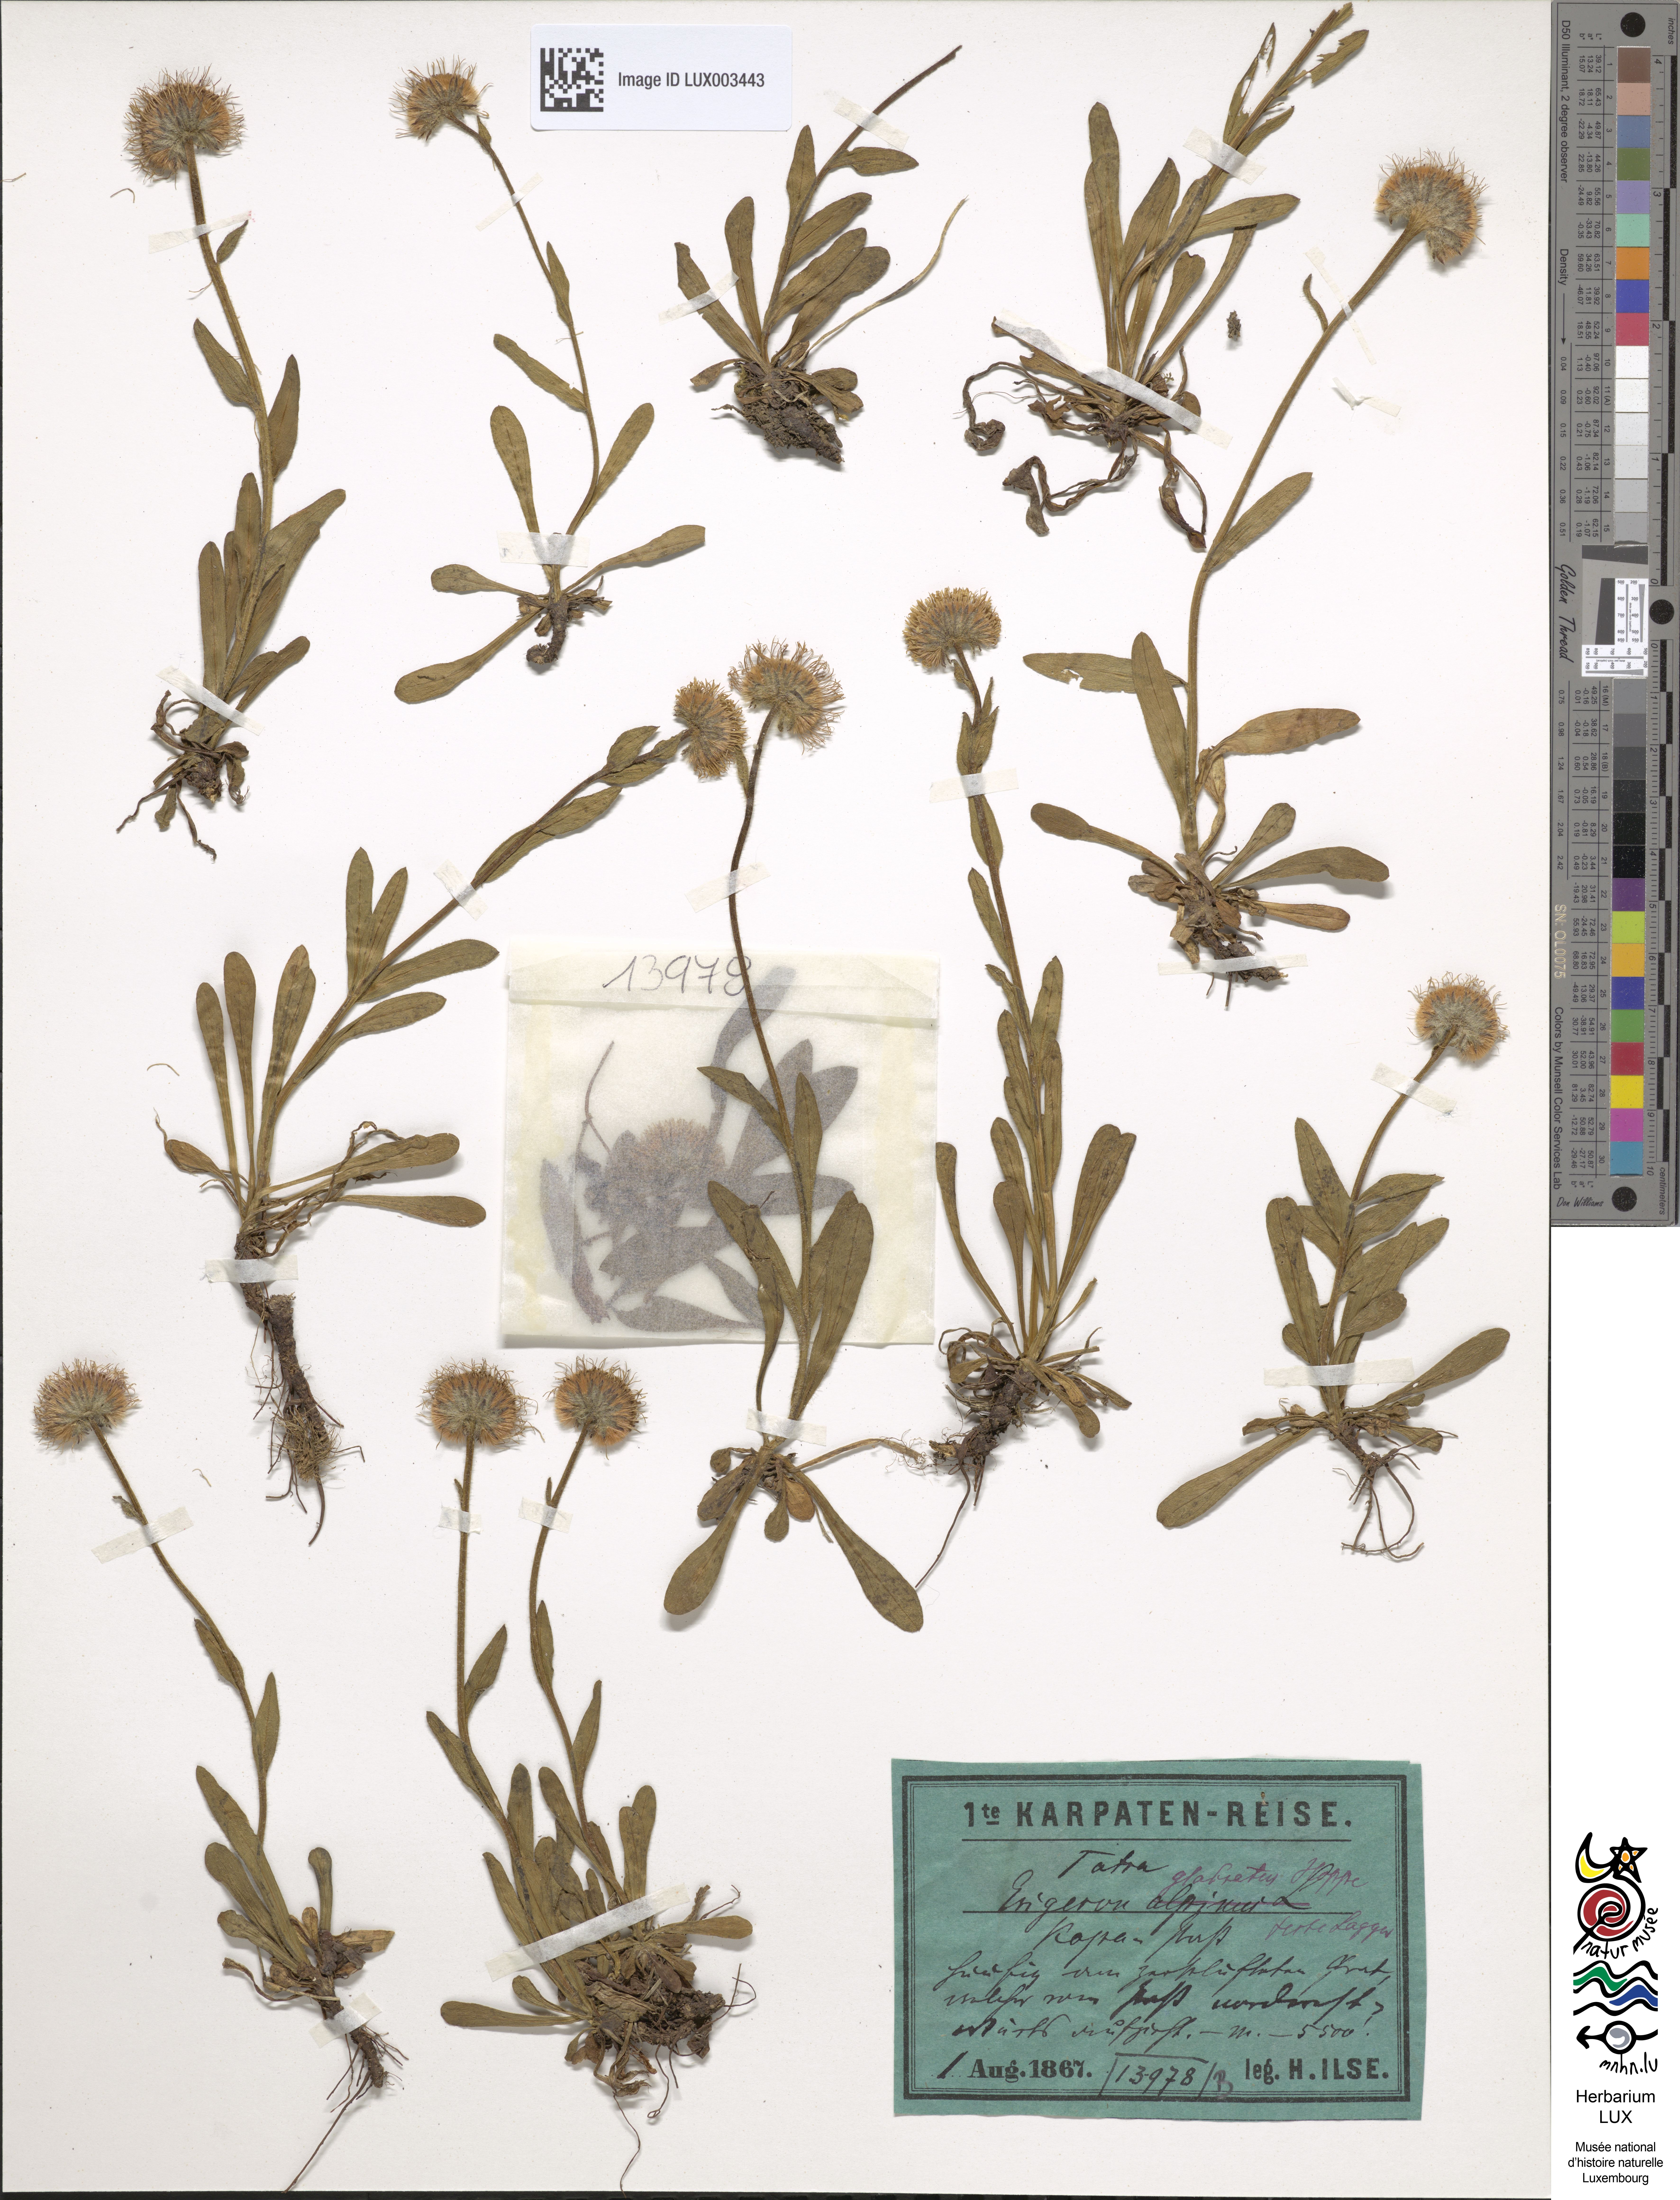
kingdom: Plantae
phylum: Tracheophyta
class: Magnoliopsida
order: Asterales
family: Asteraceae
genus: Erigeron
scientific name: Erigeron glabratus
